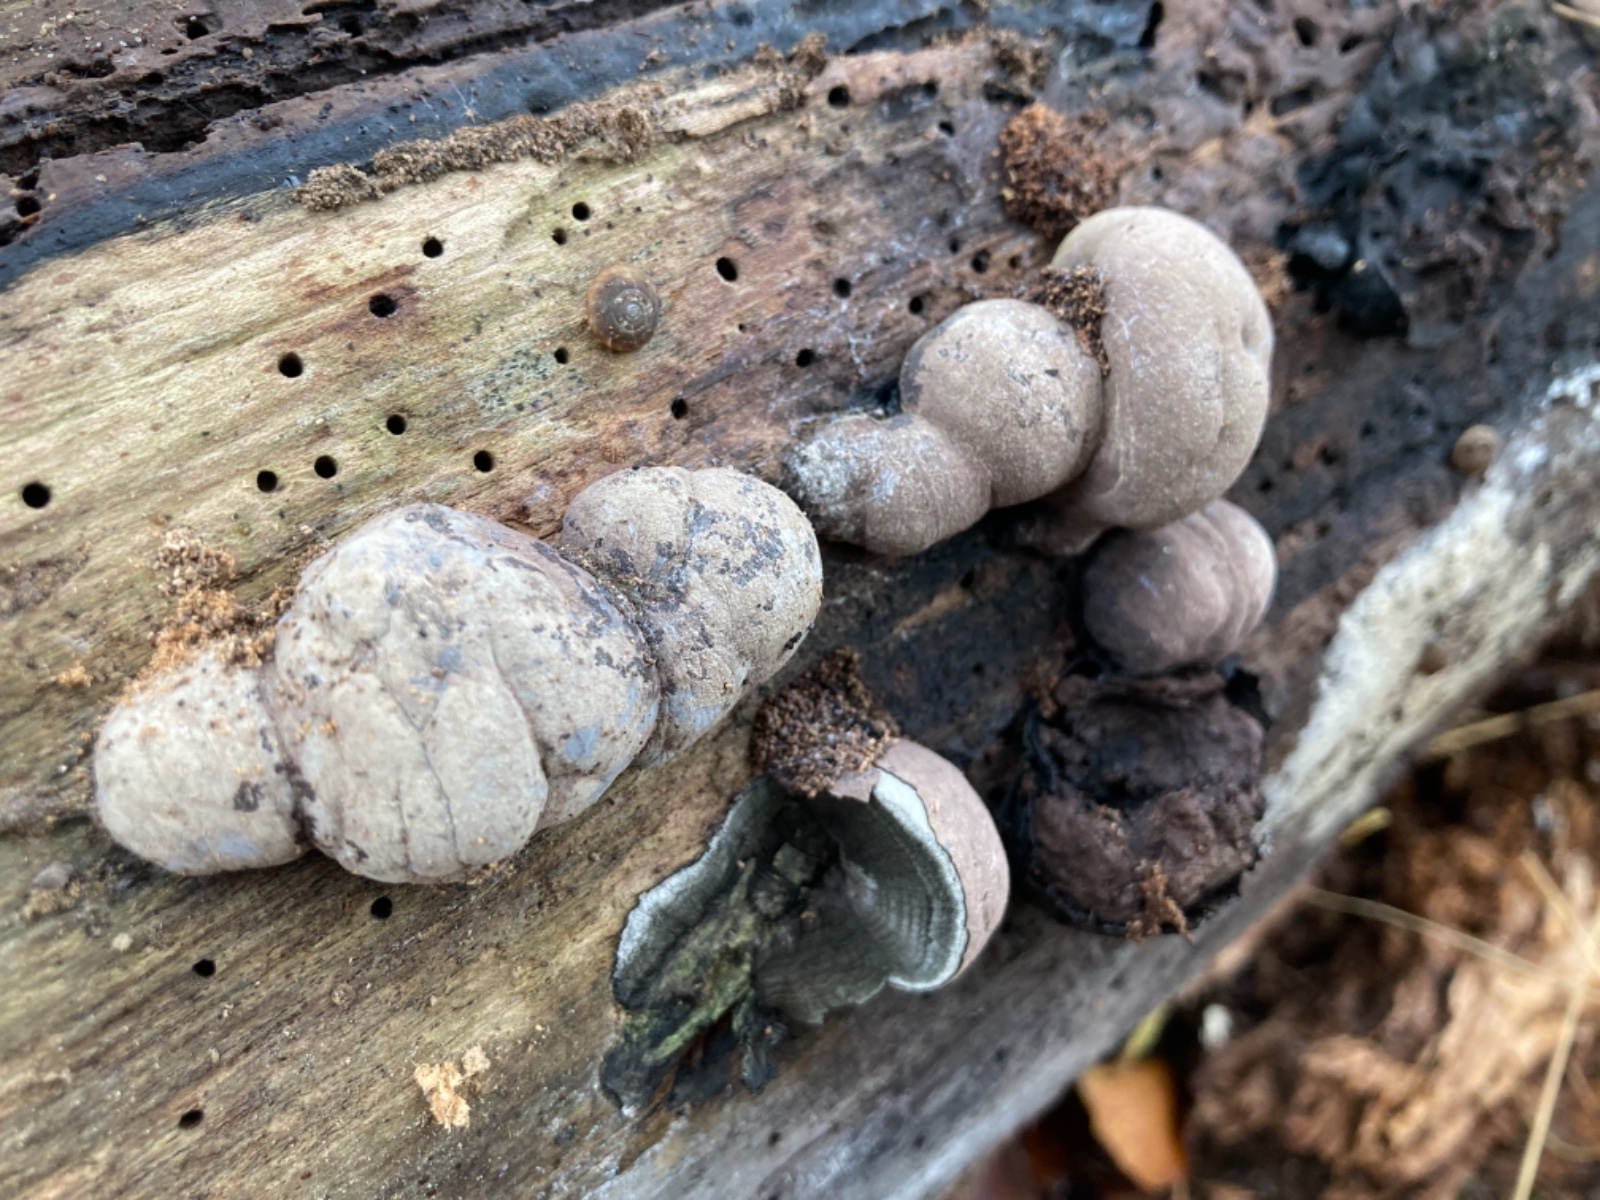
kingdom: Fungi
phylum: Ascomycota
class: Sordariomycetes
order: Xylariales
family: Hypoxylaceae
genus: Daldinia
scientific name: Daldinia concentrica
